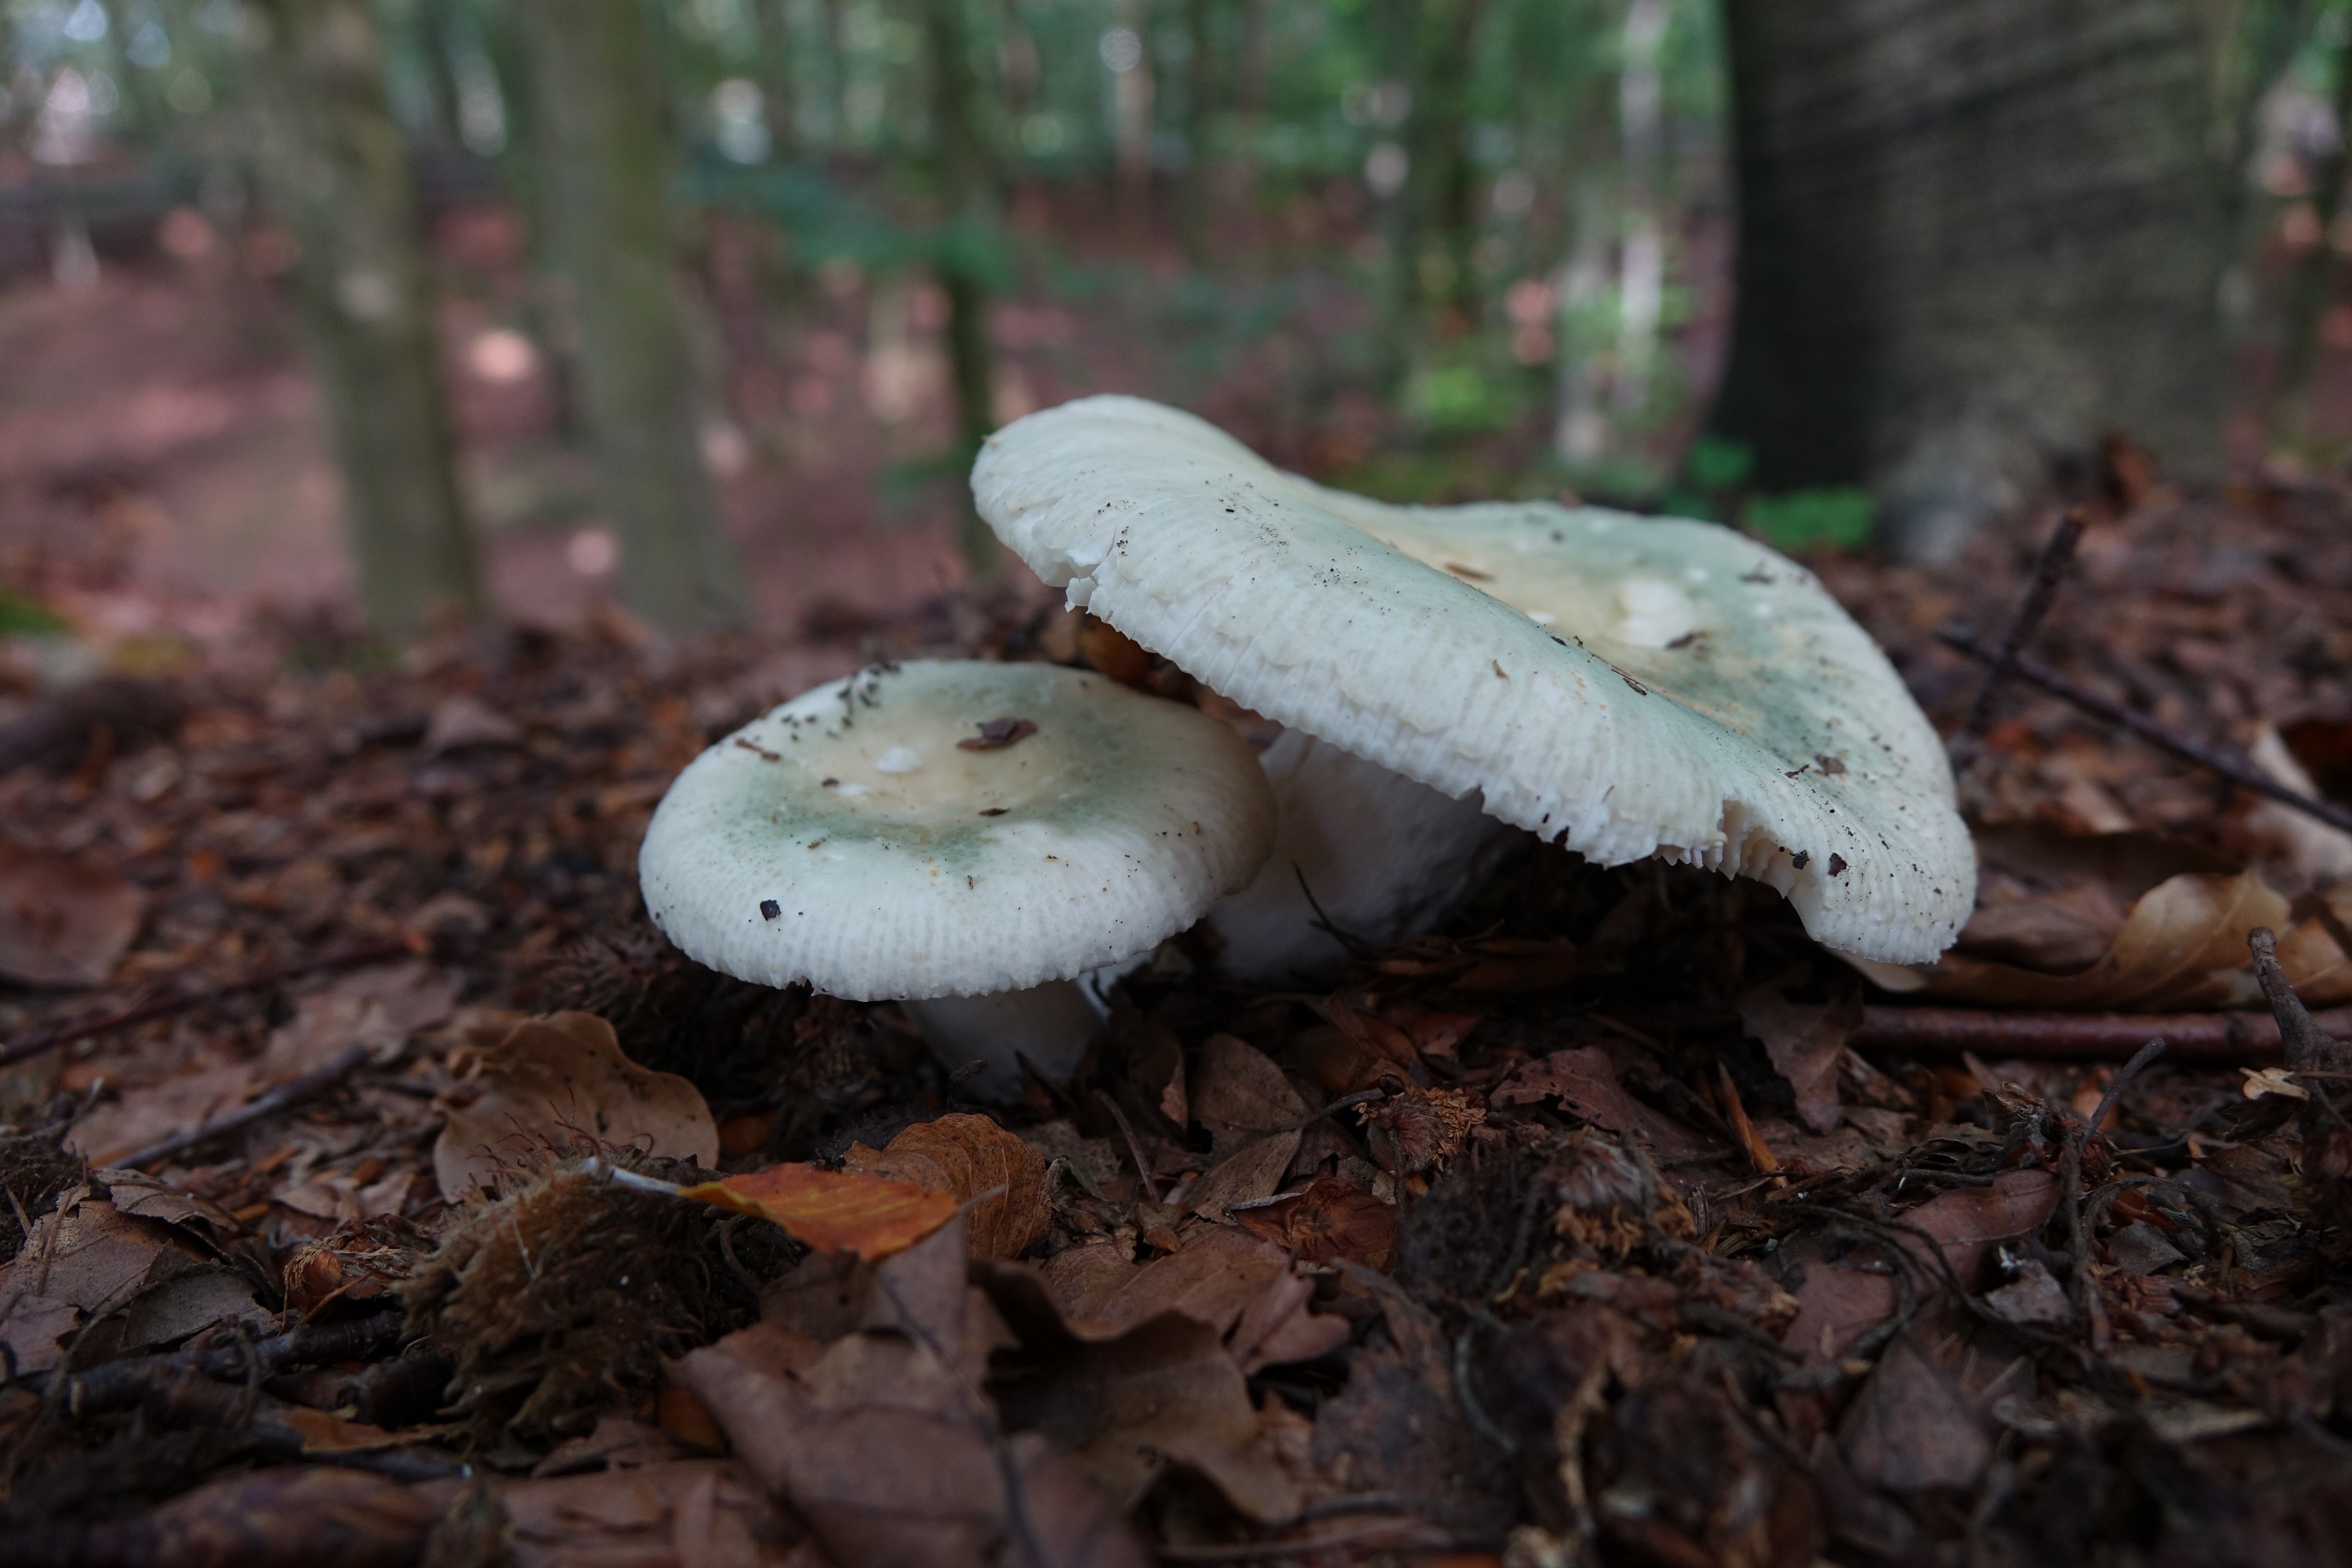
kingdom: Fungi
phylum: Basidiomycota
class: Agaricomycetes
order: Russulales
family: Russulaceae
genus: Russula
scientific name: Russula virescens
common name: Greencracked brittlegill
